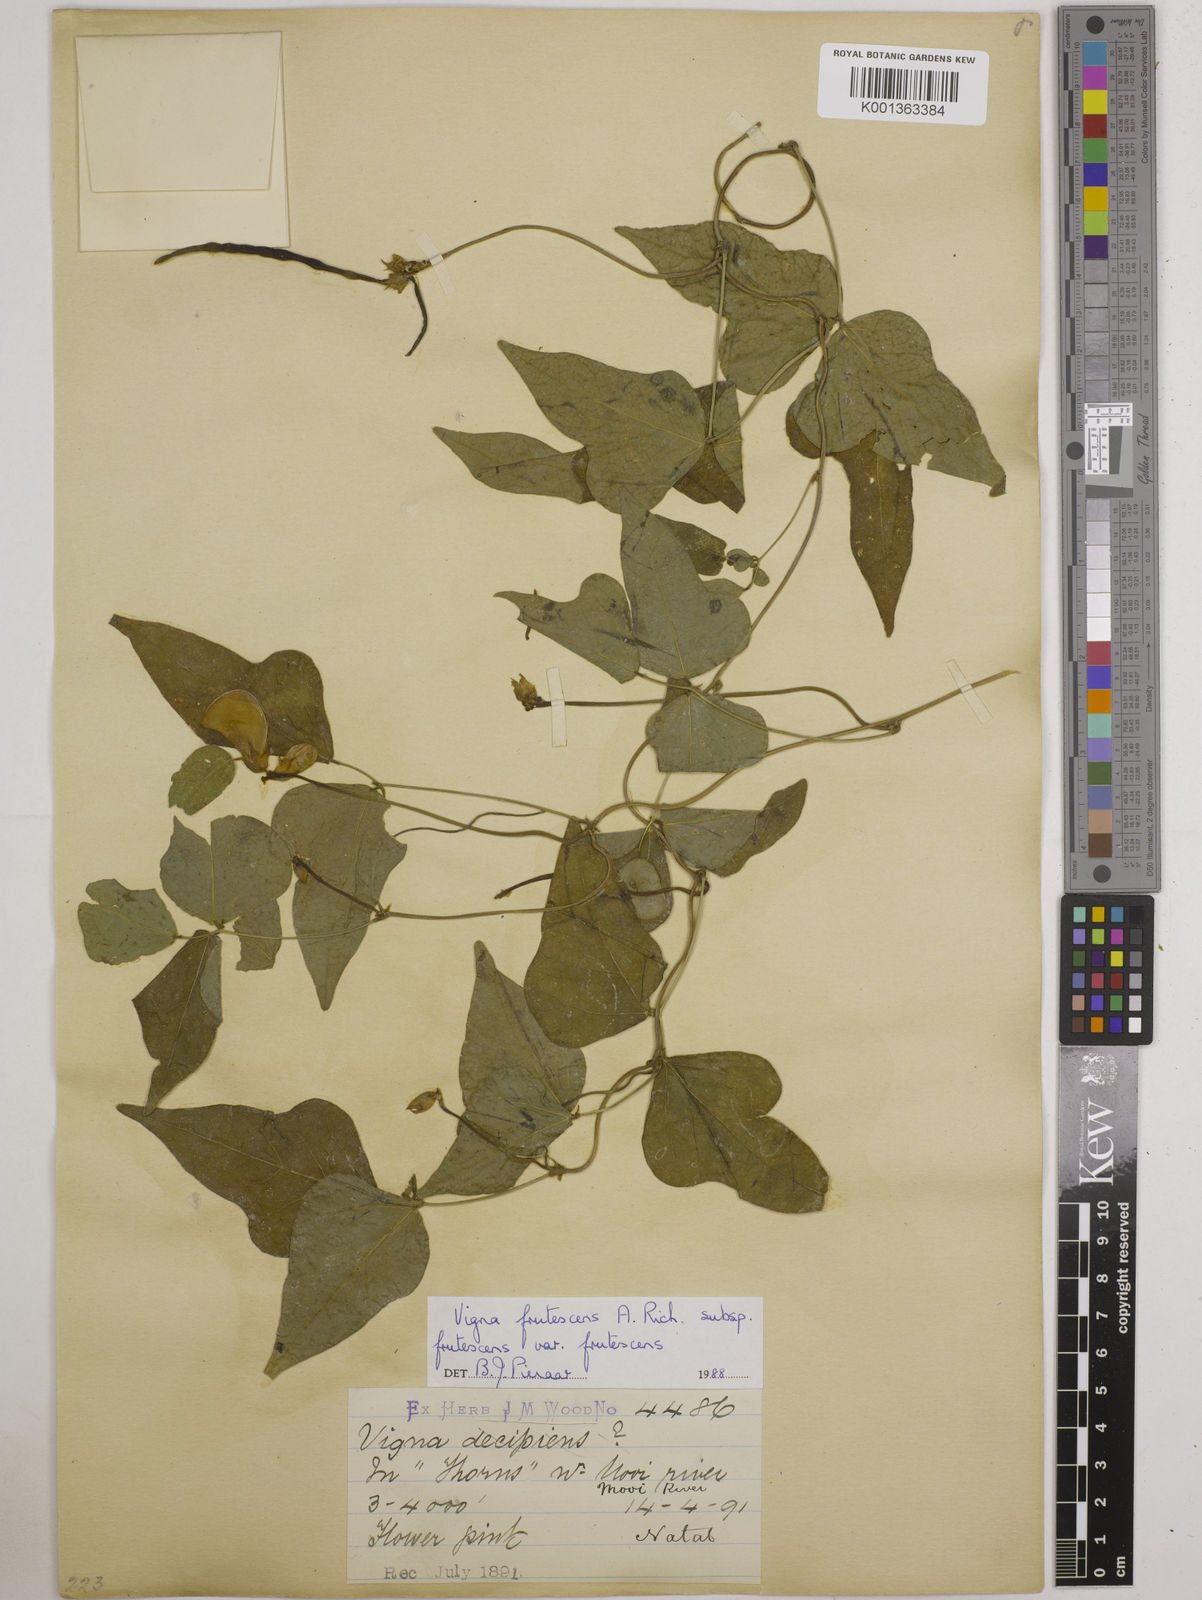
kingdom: Plantae
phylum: Tracheophyta
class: Magnoliopsida
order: Fabales
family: Fabaceae
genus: Vigna
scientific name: Vigna frutescens
